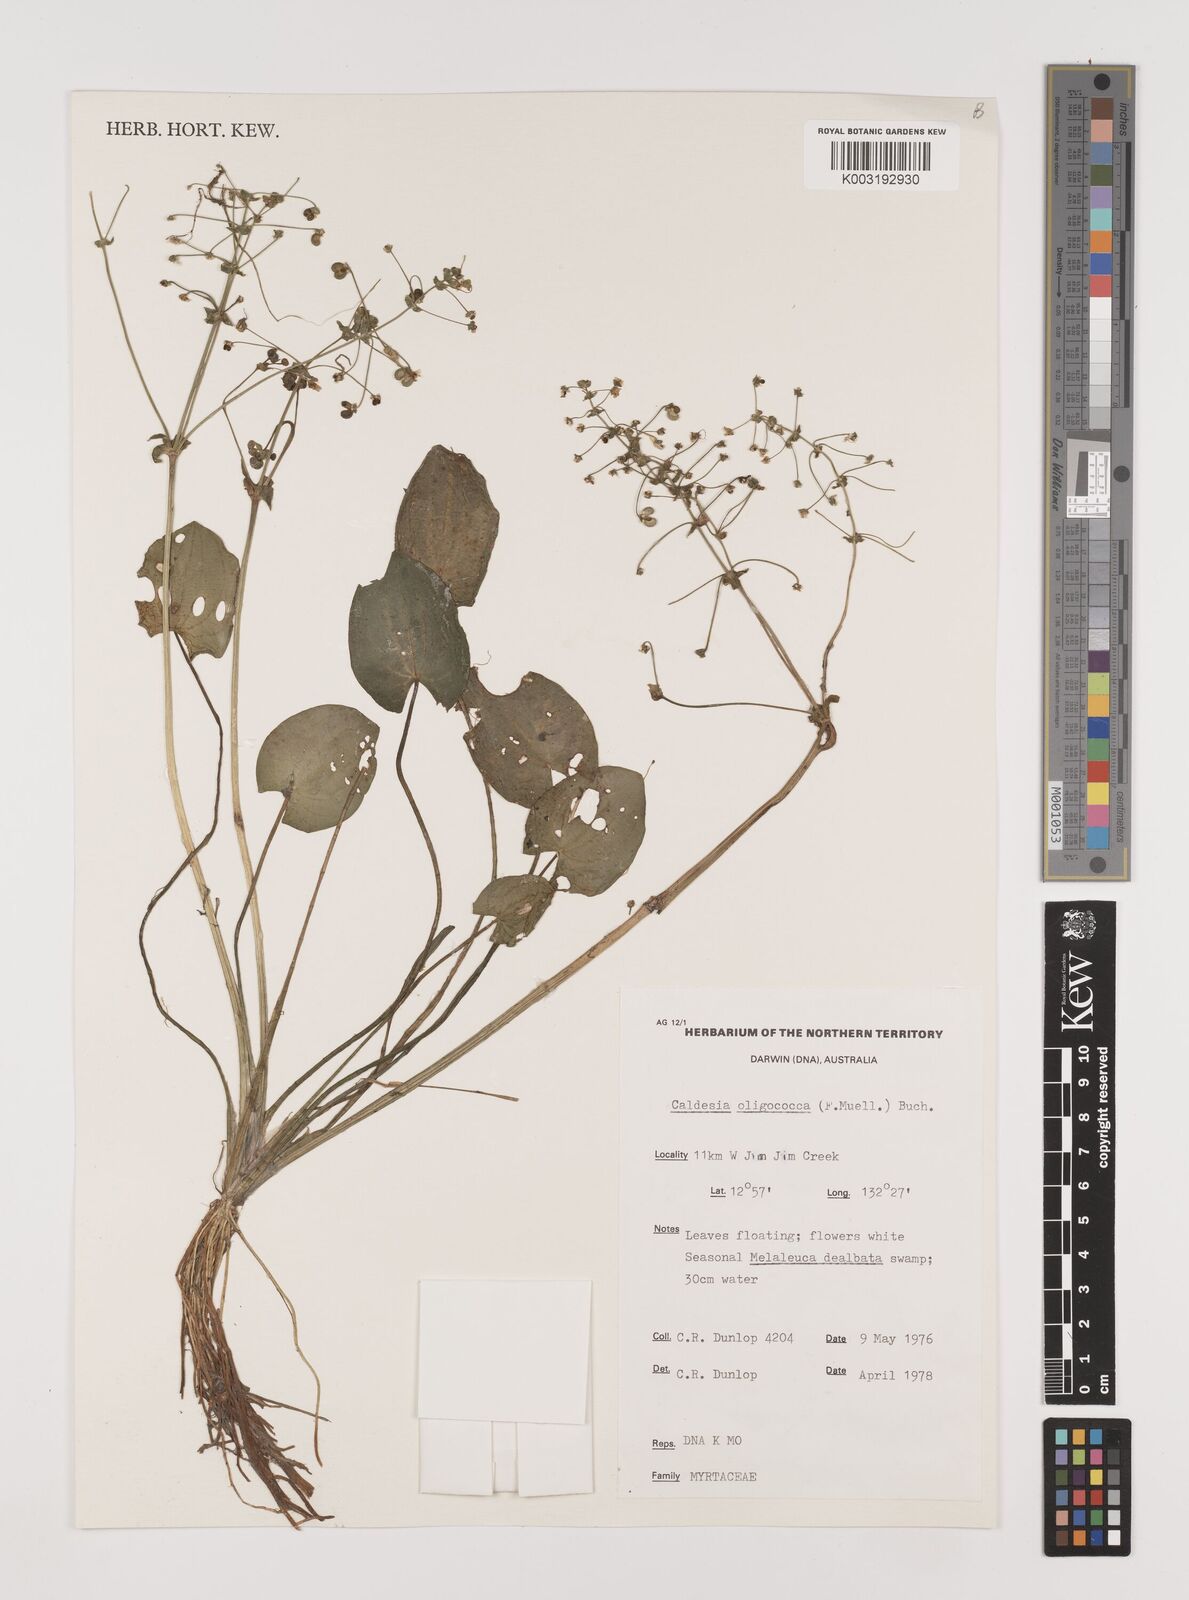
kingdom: Plantae
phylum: Tracheophyta
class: Liliopsida
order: Alismatales
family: Alismataceae
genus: Albidella
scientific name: Albidella oligococca
